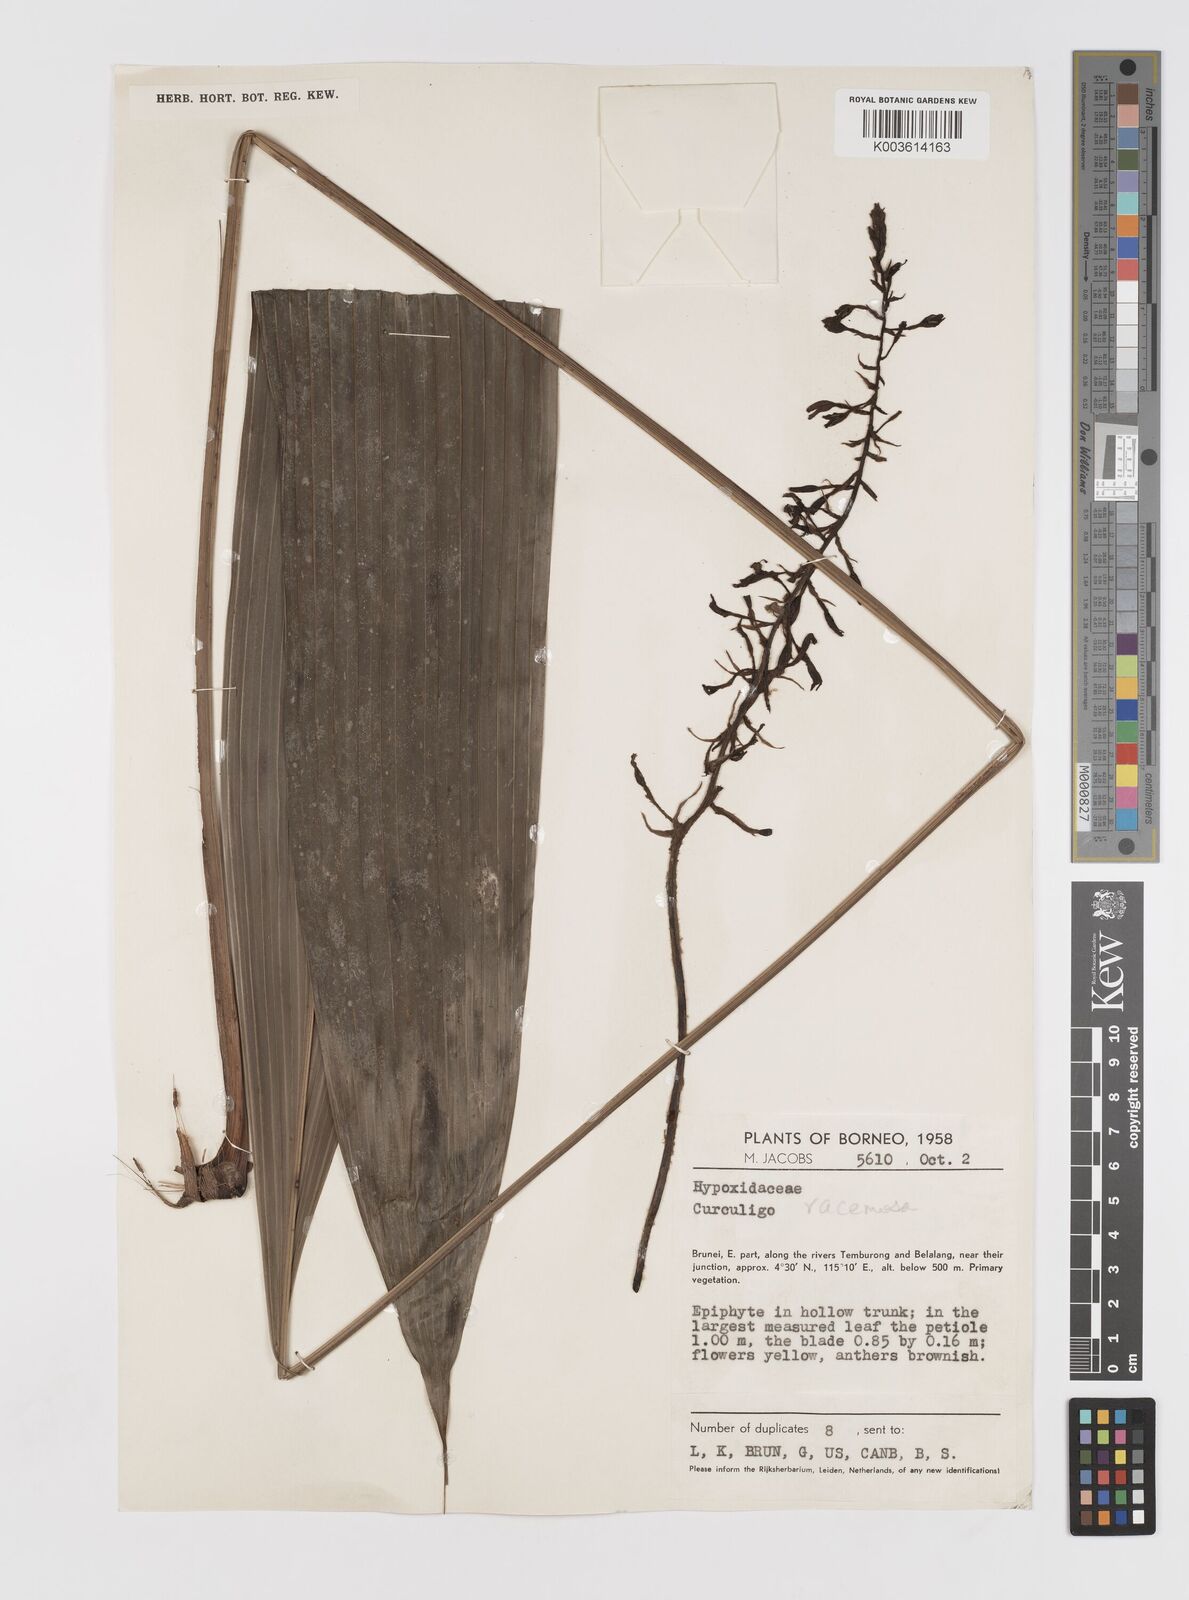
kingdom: Plantae
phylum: Tracheophyta
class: Liliopsida
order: Asparagales
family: Hypoxidaceae
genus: Curculigo
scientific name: Curculigo racemosa
